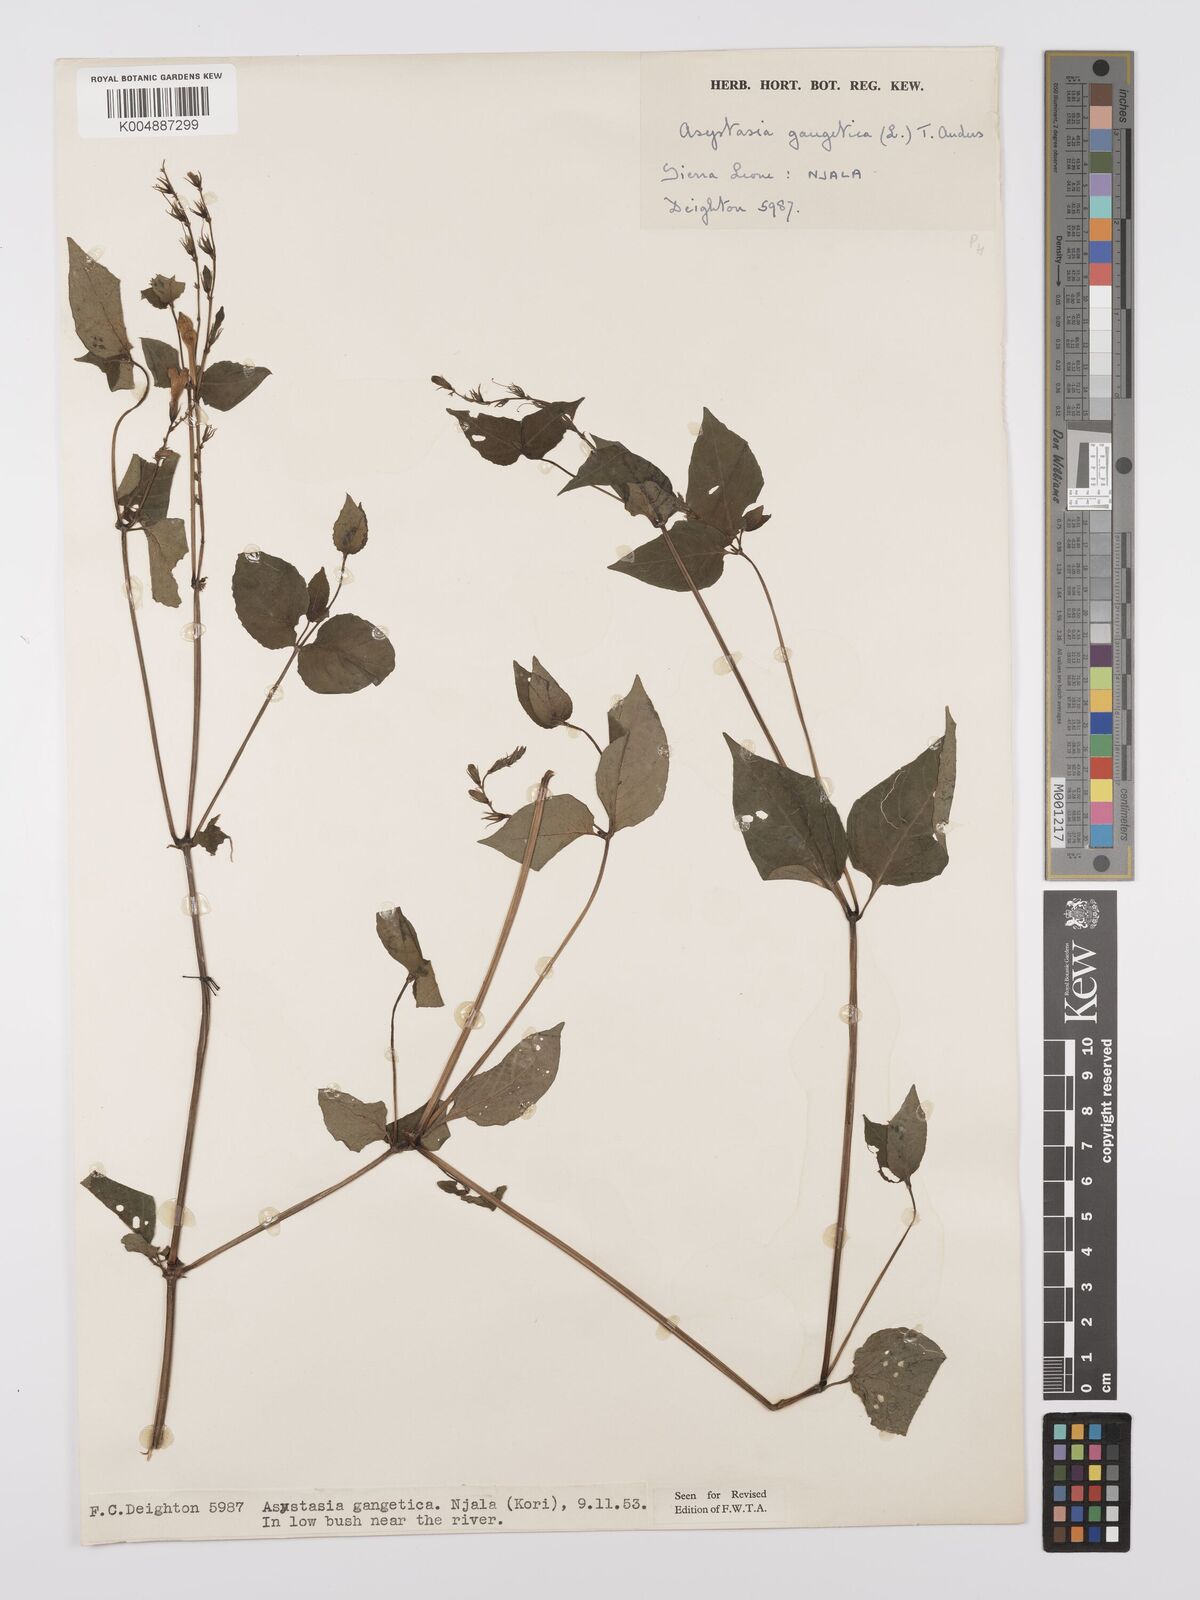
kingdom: Plantae
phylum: Tracheophyta
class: Magnoliopsida
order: Lamiales
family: Acanthaceae
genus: Asystasia
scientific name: Asystasia gangetica
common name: Chinese violet
